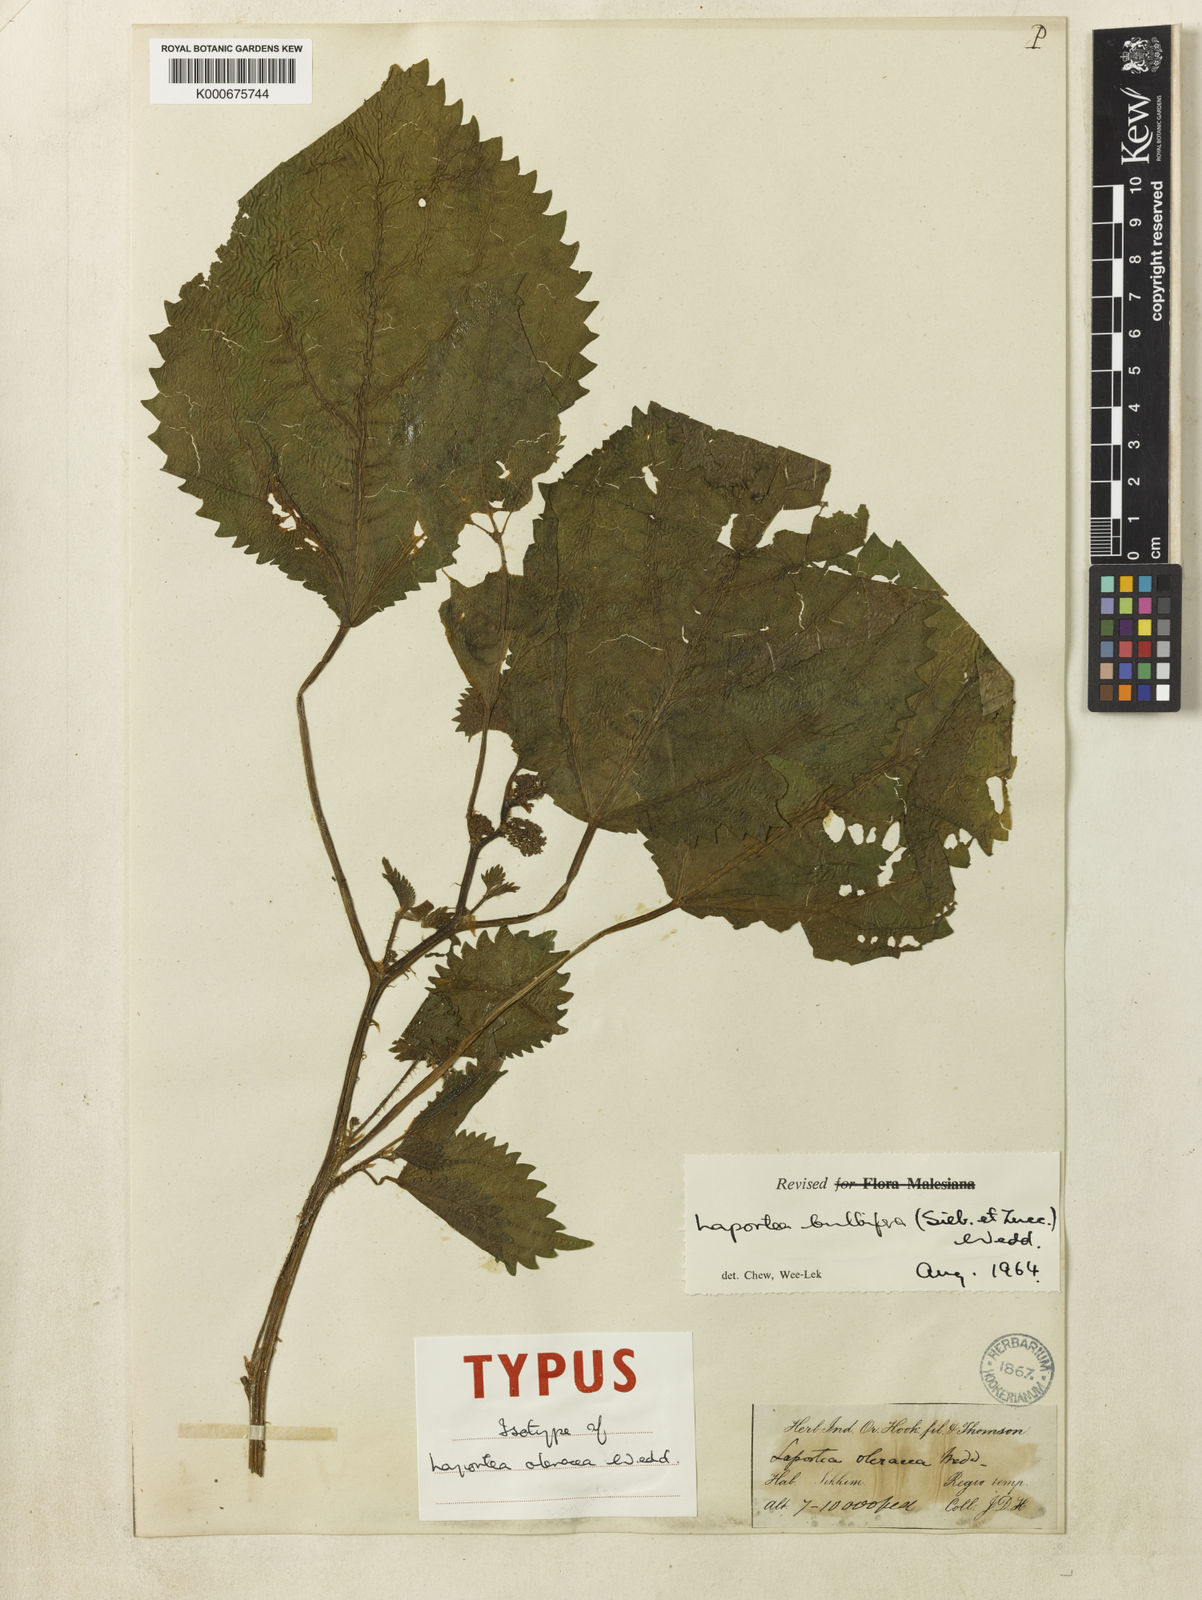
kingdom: Plantae
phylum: Tracheophyta
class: Magnoliopsida
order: Rosales
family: Urticaceae
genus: Laportea
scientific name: Laportea bulbifera
